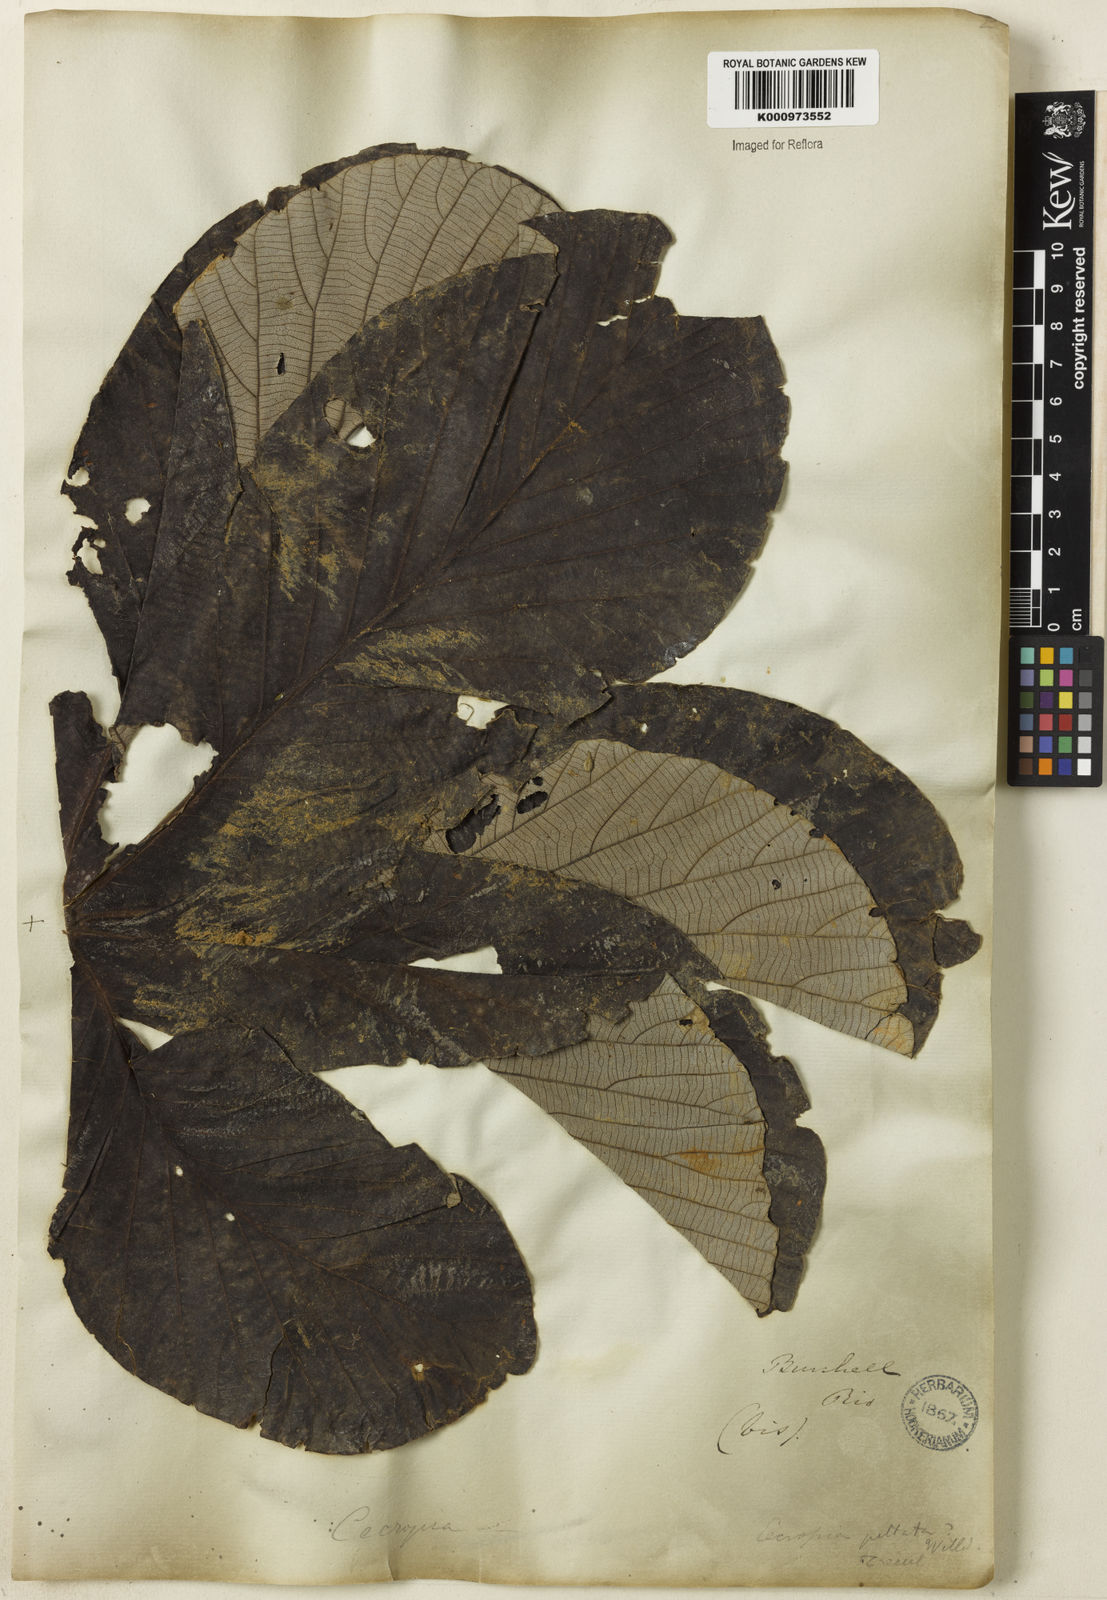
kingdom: Plantae
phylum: Tracheophyta
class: Magnoliopsida
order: Rosales
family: Urticaceae
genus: Cecropia
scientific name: Cecropia
